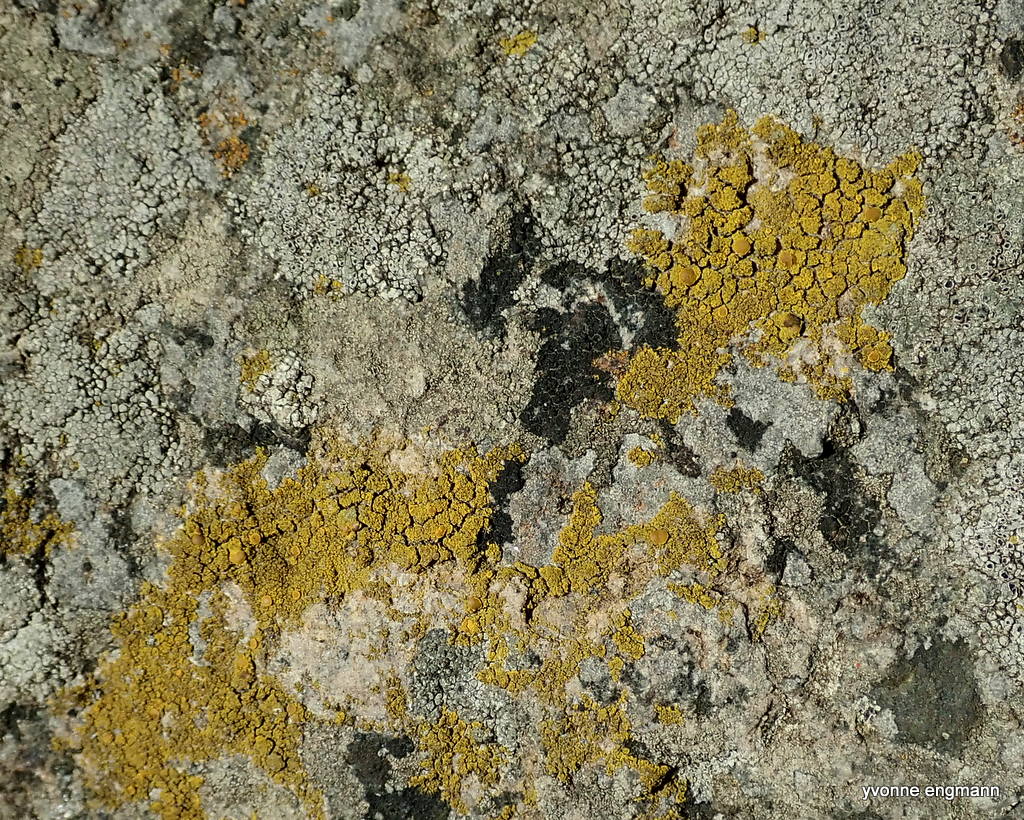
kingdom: Fungi
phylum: Ascomycota
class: Candelariomycetes
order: Candelariales
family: Candelariaceae
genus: Candelariella
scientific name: Candelariella vitellina
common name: almindelig æggeblommelav
